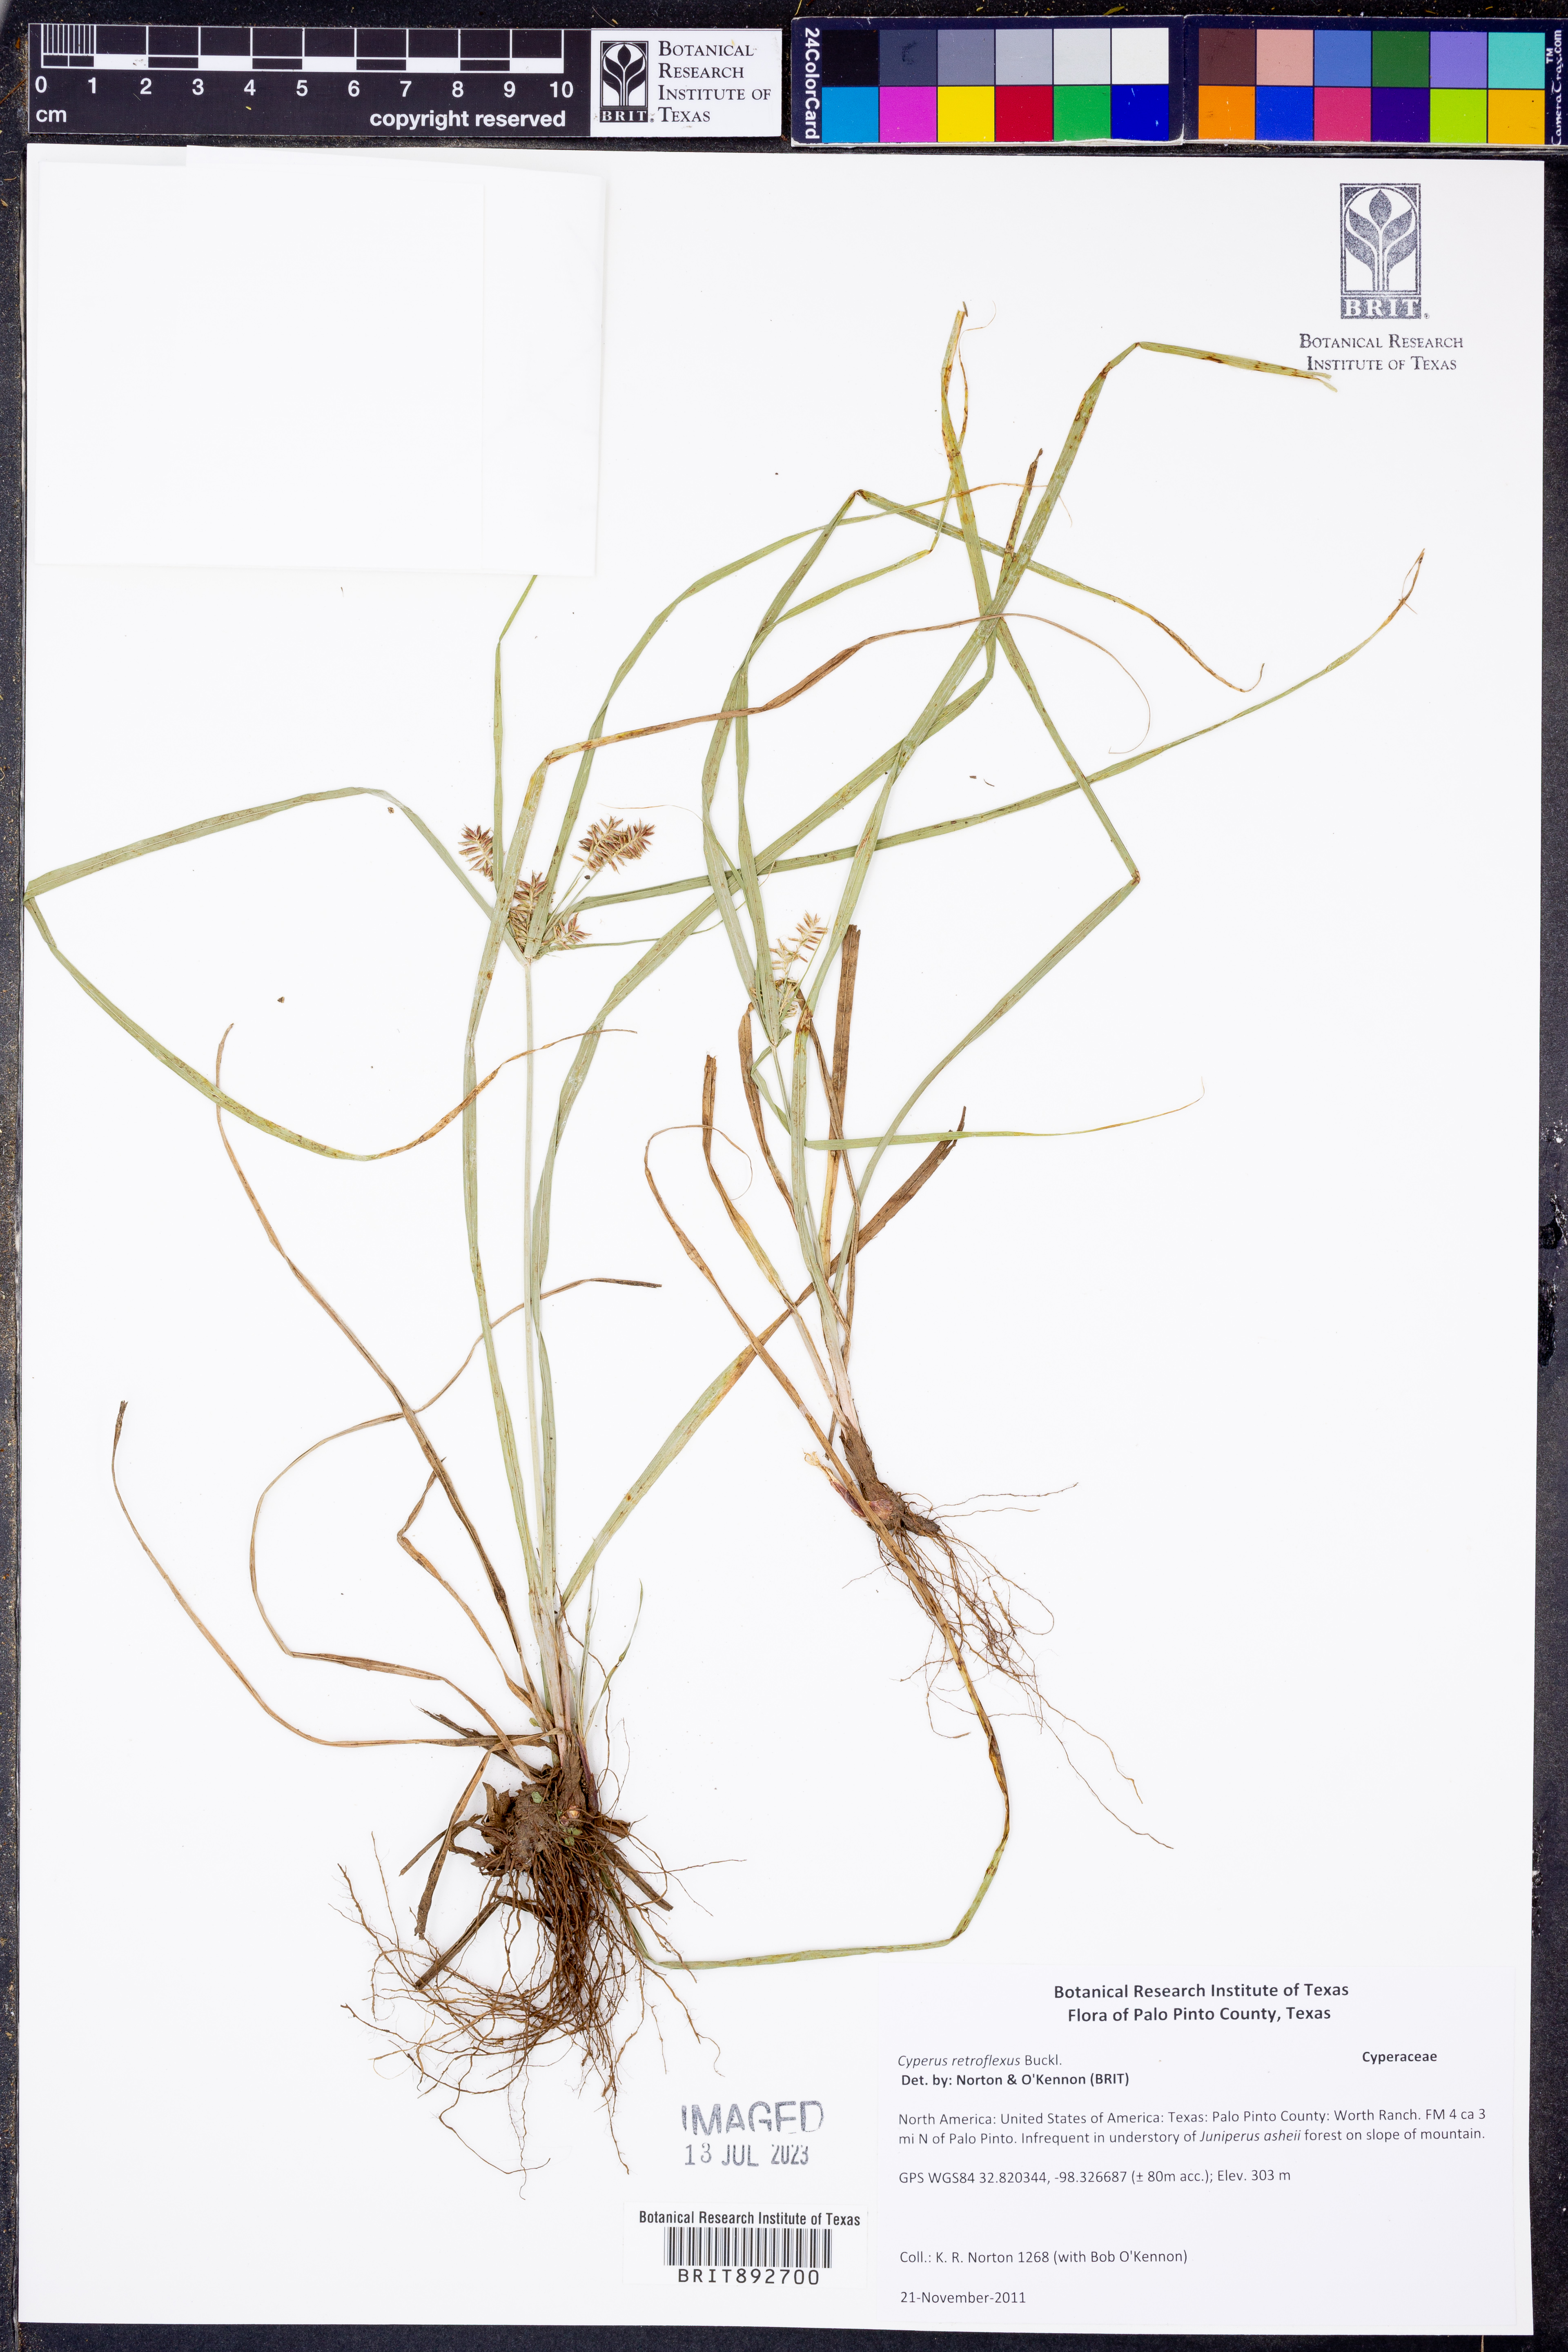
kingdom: Plantae
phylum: Tracheophyta
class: Liliopsida
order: Poales
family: Cyperaceae
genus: Cyperus
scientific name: Cyperus retroflexus
